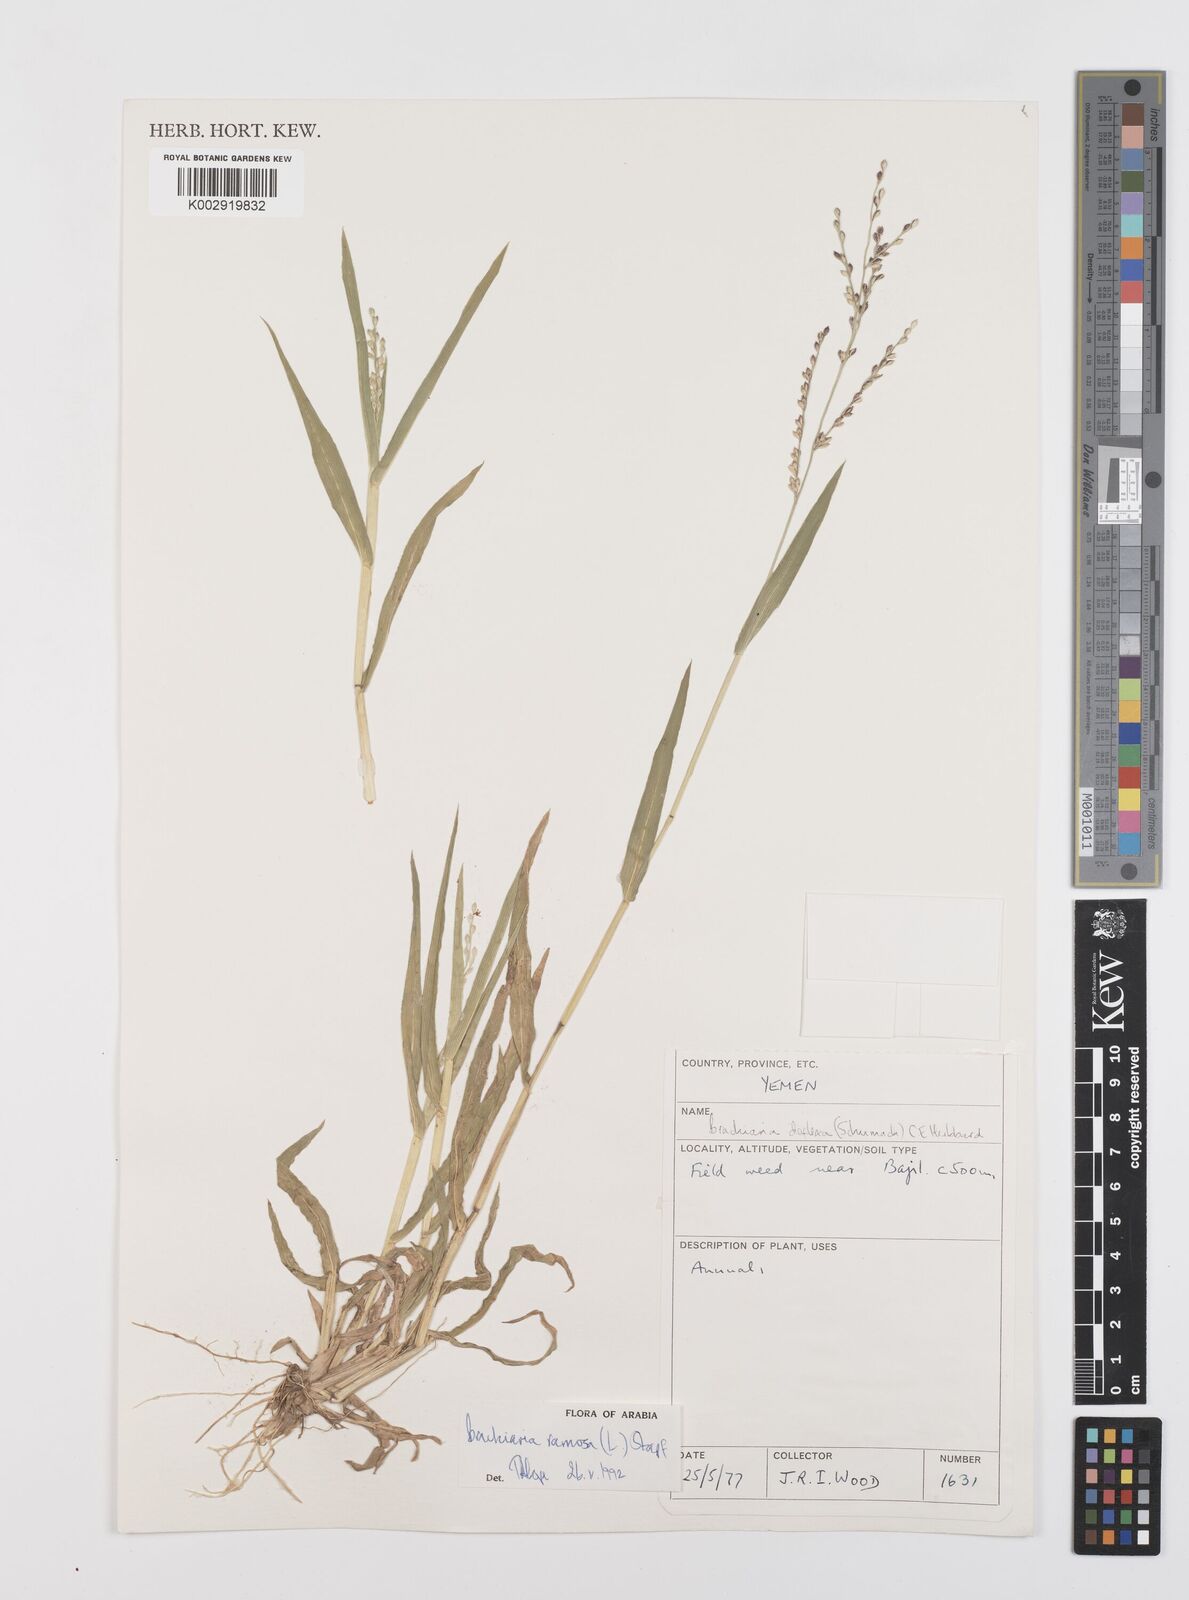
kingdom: Plantae
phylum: Tracheophyta
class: Liliopsida
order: Poales
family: Poaceae
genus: Urochloa
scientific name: Urochloa ramosa
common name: Browntop millet
